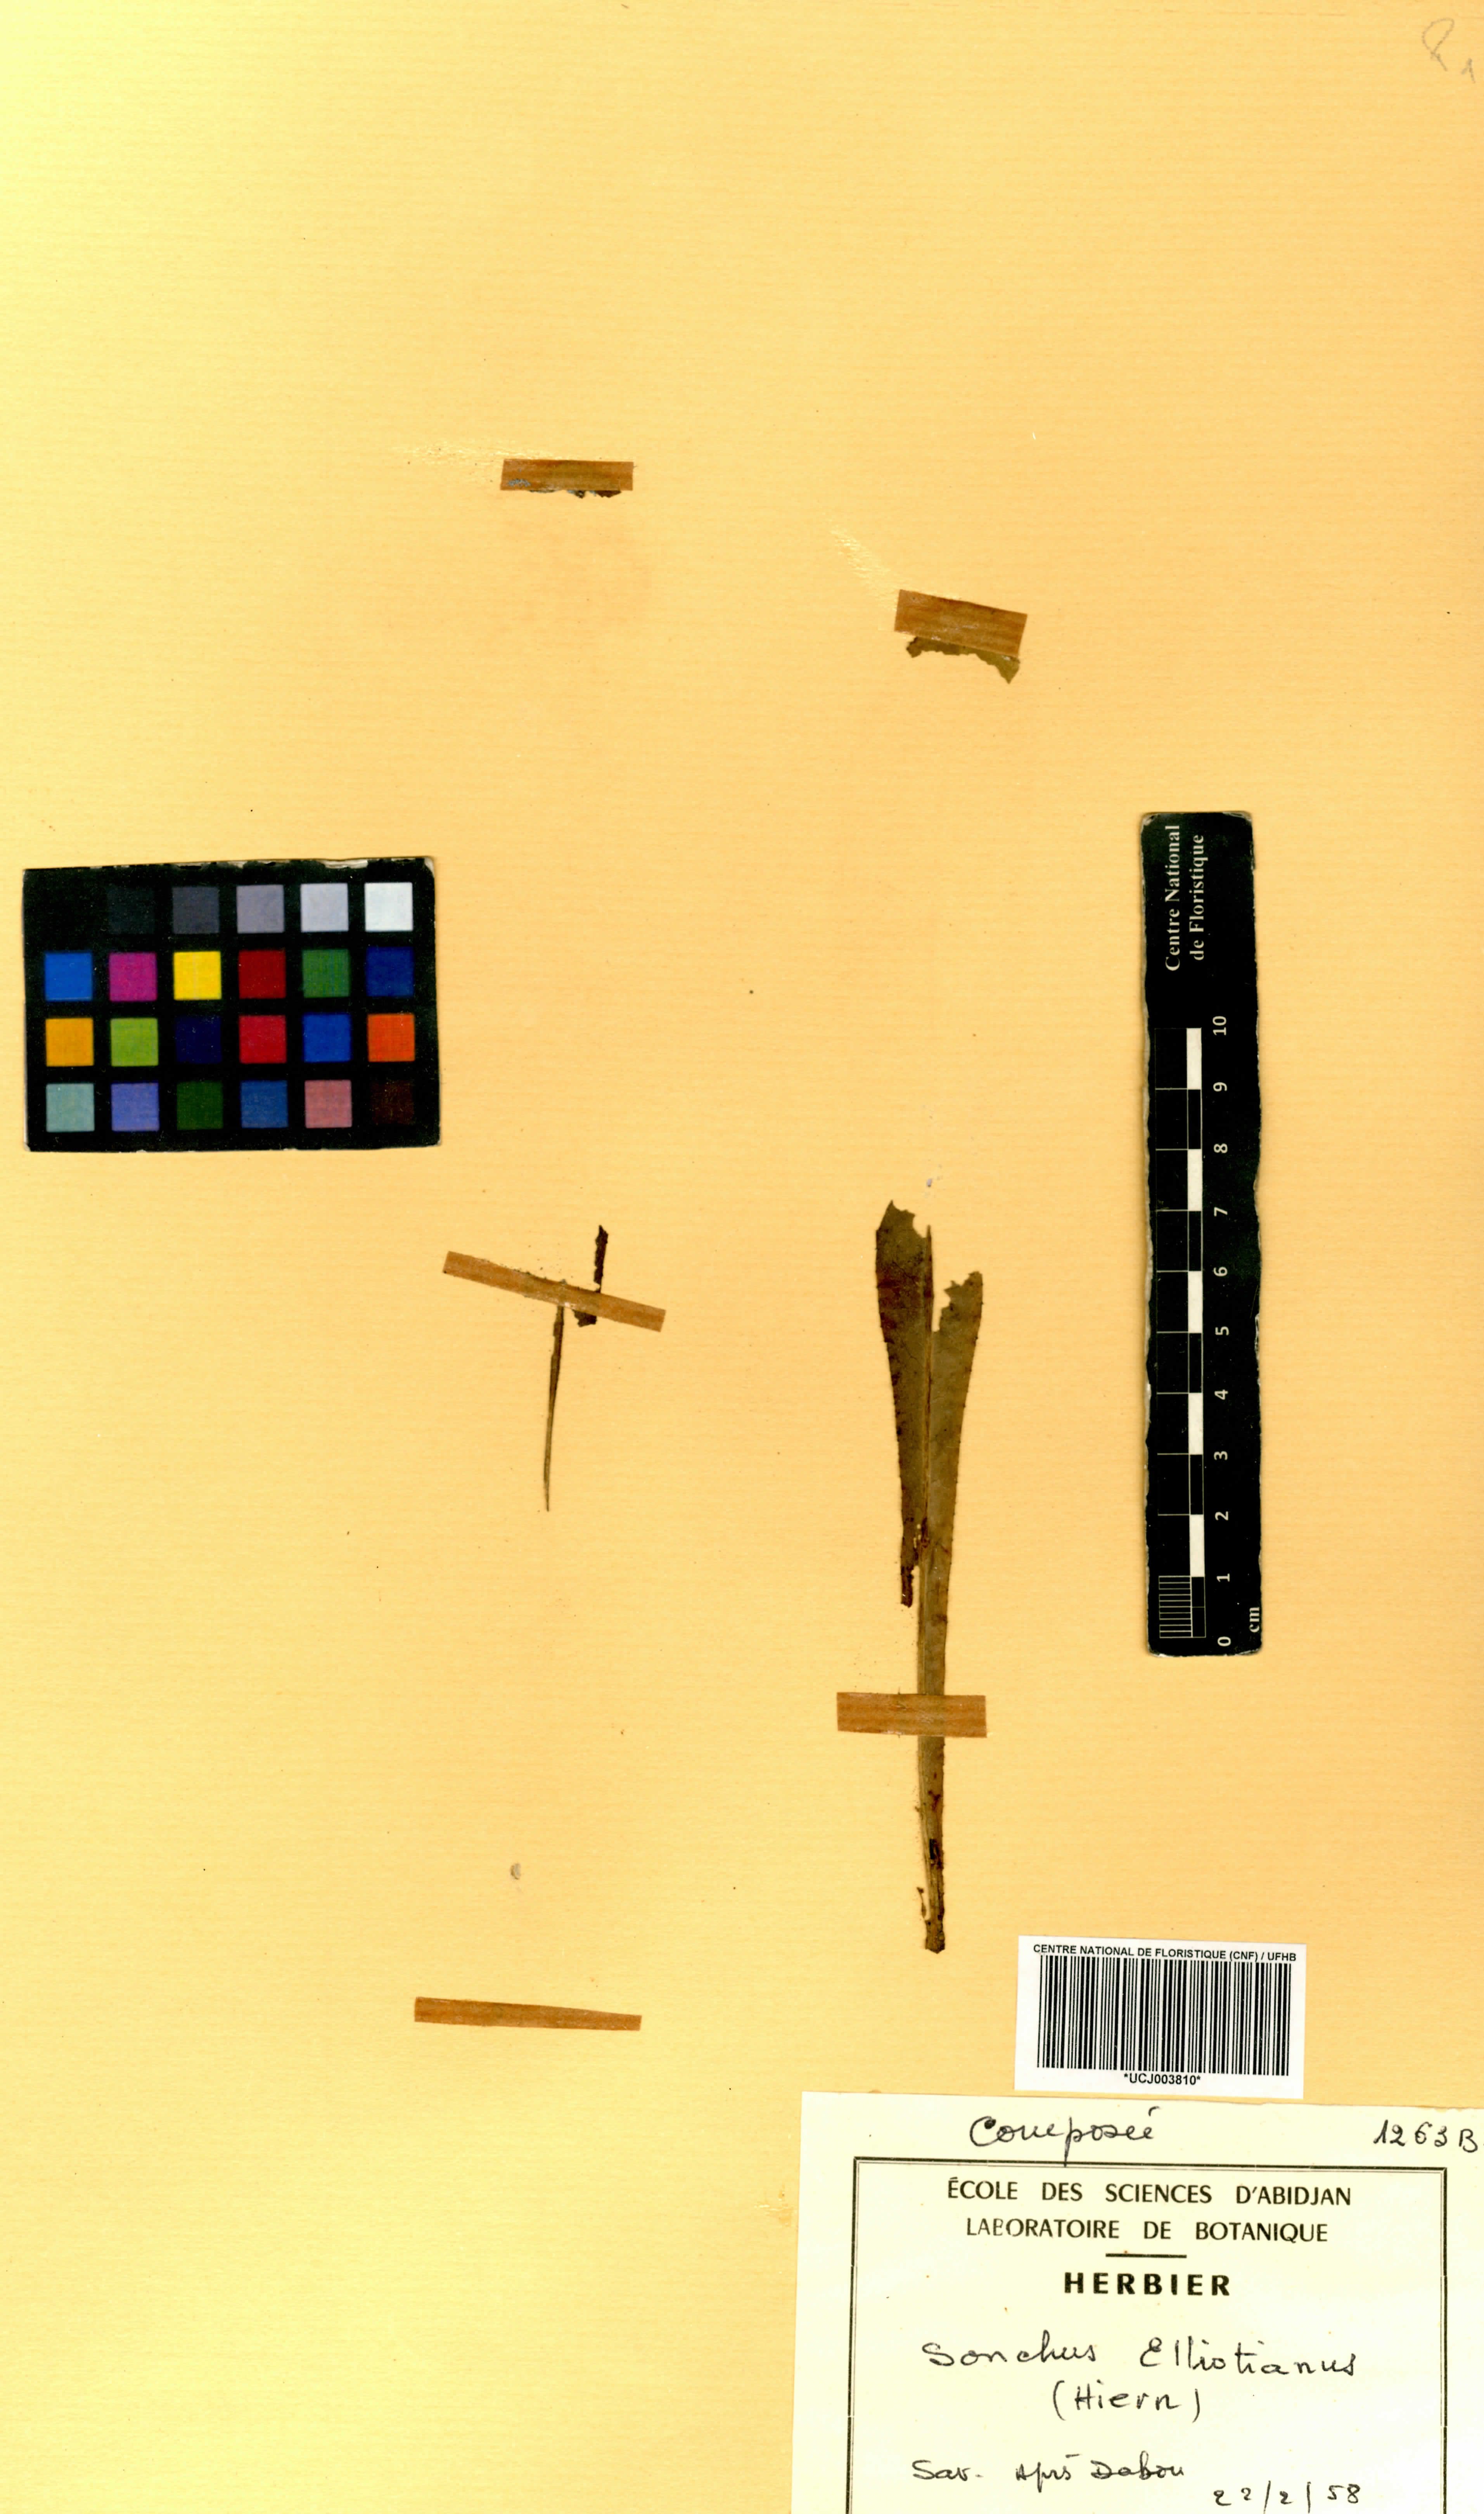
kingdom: Plantae
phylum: Tracheophyta
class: Magnoliopsida
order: Asterales
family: Asteraceae
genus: Launaea
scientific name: Launaea nana
